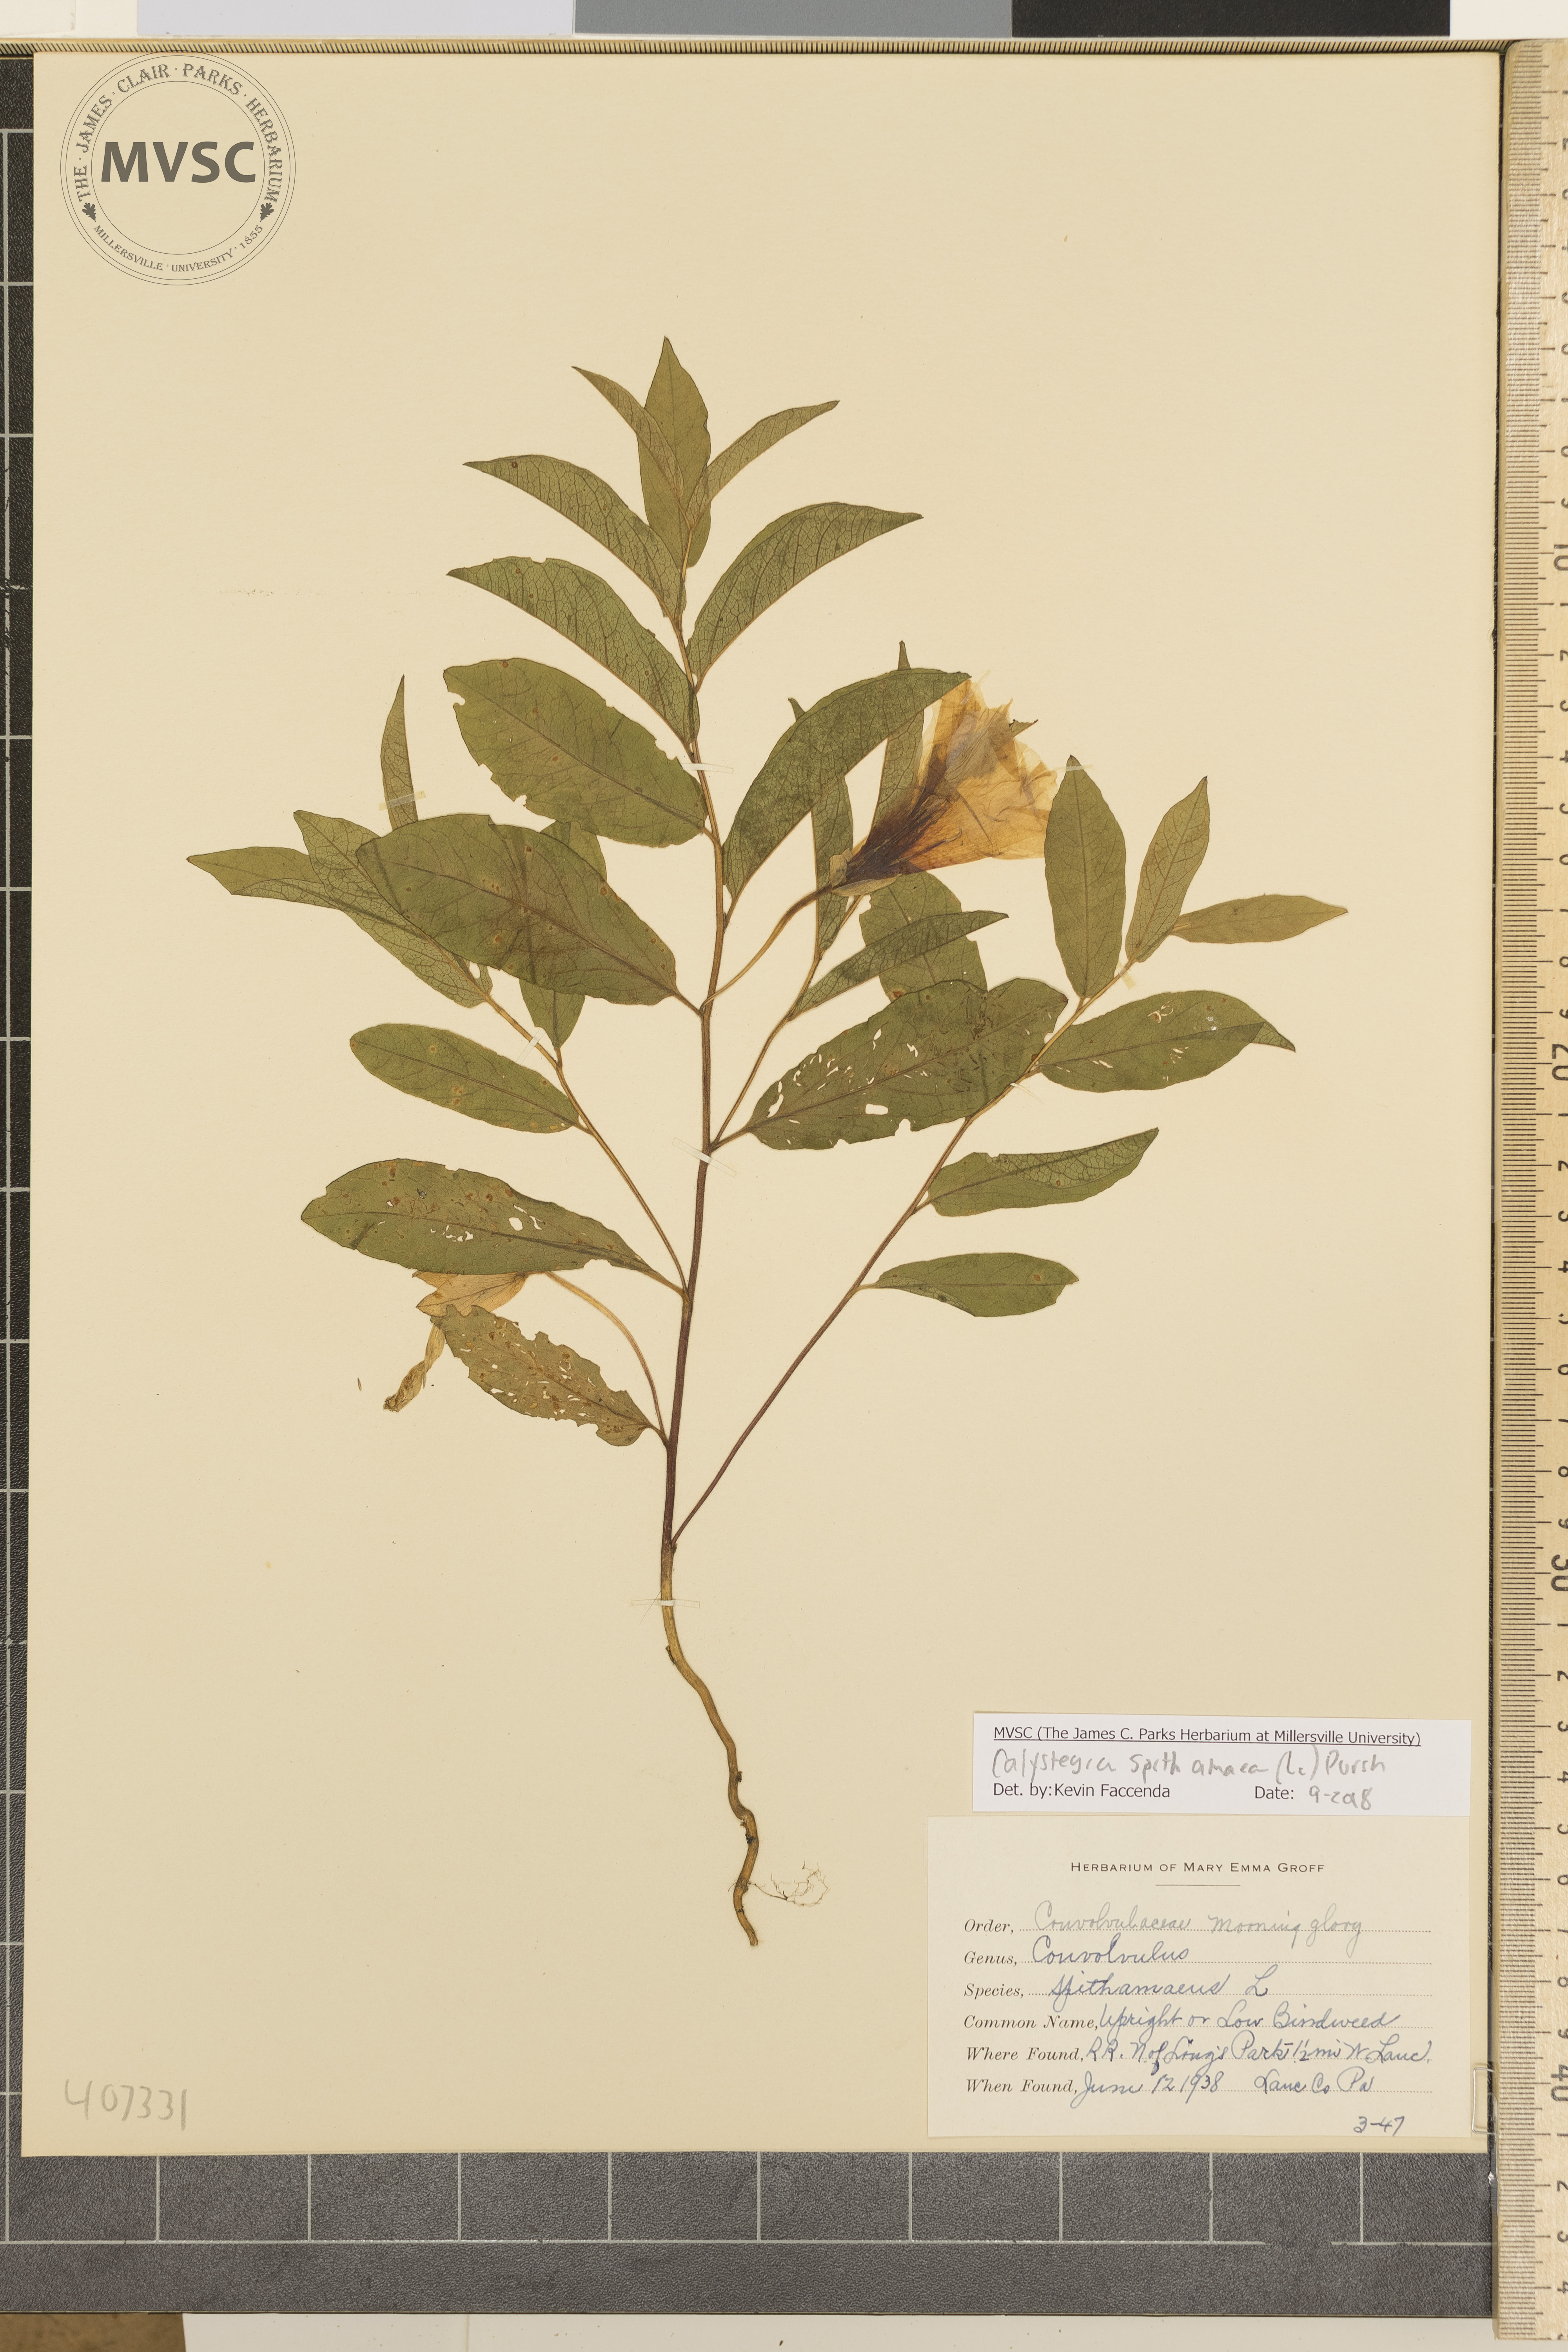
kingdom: Plantae
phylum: Tracheophyta
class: Magnoliopsida
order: Solanales
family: Convolvulaceae
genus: Calystegia
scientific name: Calystegia spithamaea
